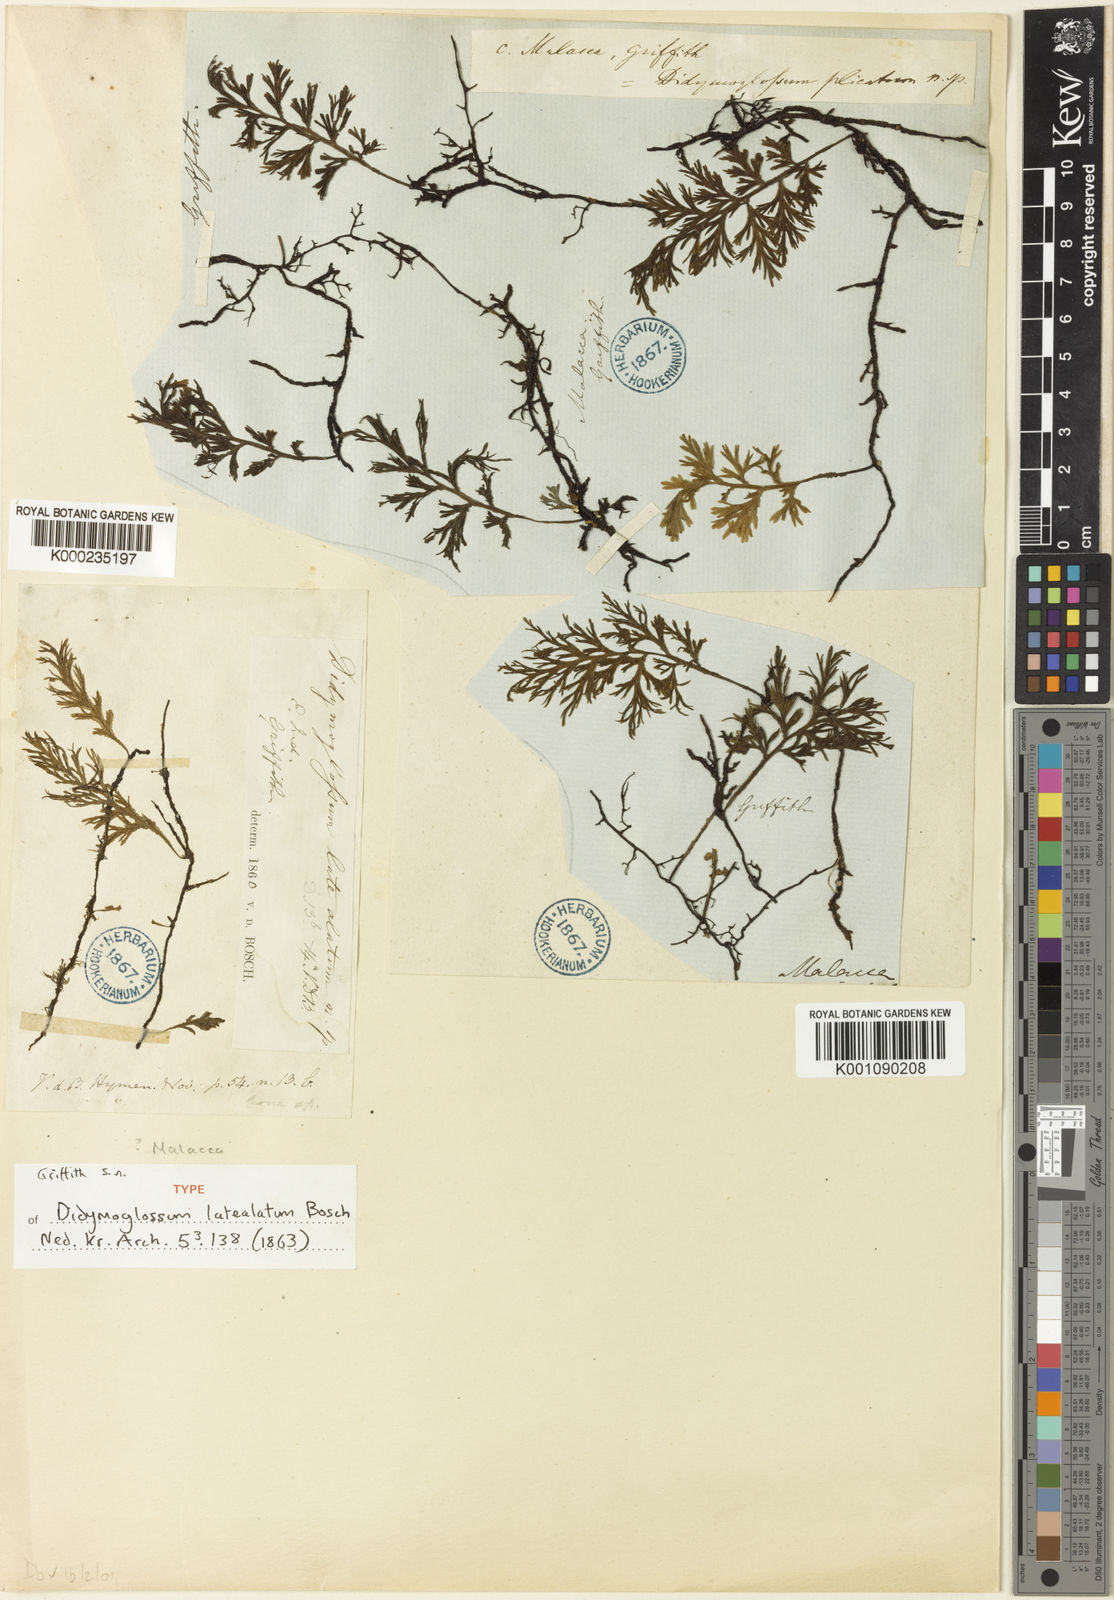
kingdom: Plantae
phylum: Tracheophyta
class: Polypodiopsida
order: Hymenophyllales
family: Hymenophyllaceae
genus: Crepidomanes
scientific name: Crepidomanes latealatum
